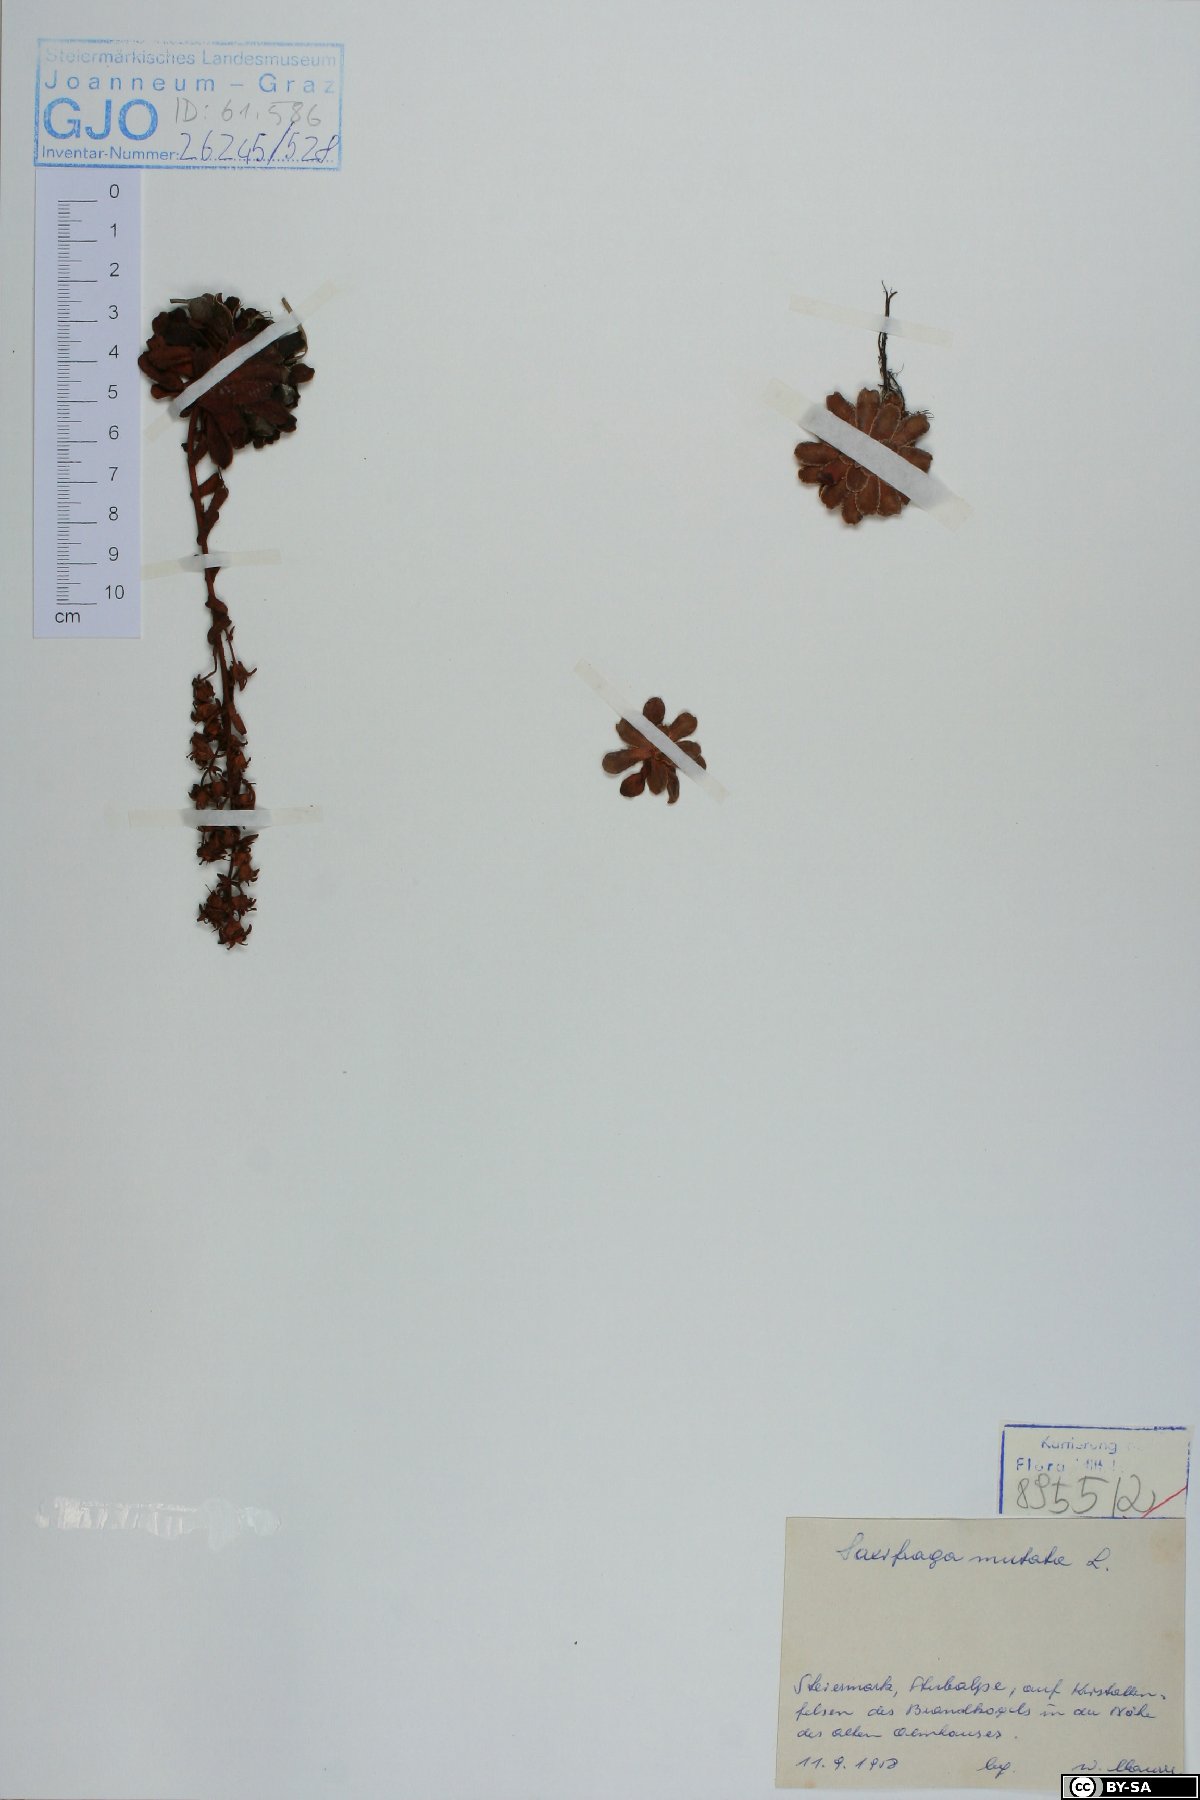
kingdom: Plantae
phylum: Tracheophyta
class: Magnoliopsida
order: Saxifragales
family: Saxifragaceae
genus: Saxifraga
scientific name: Saxifraga mutata
